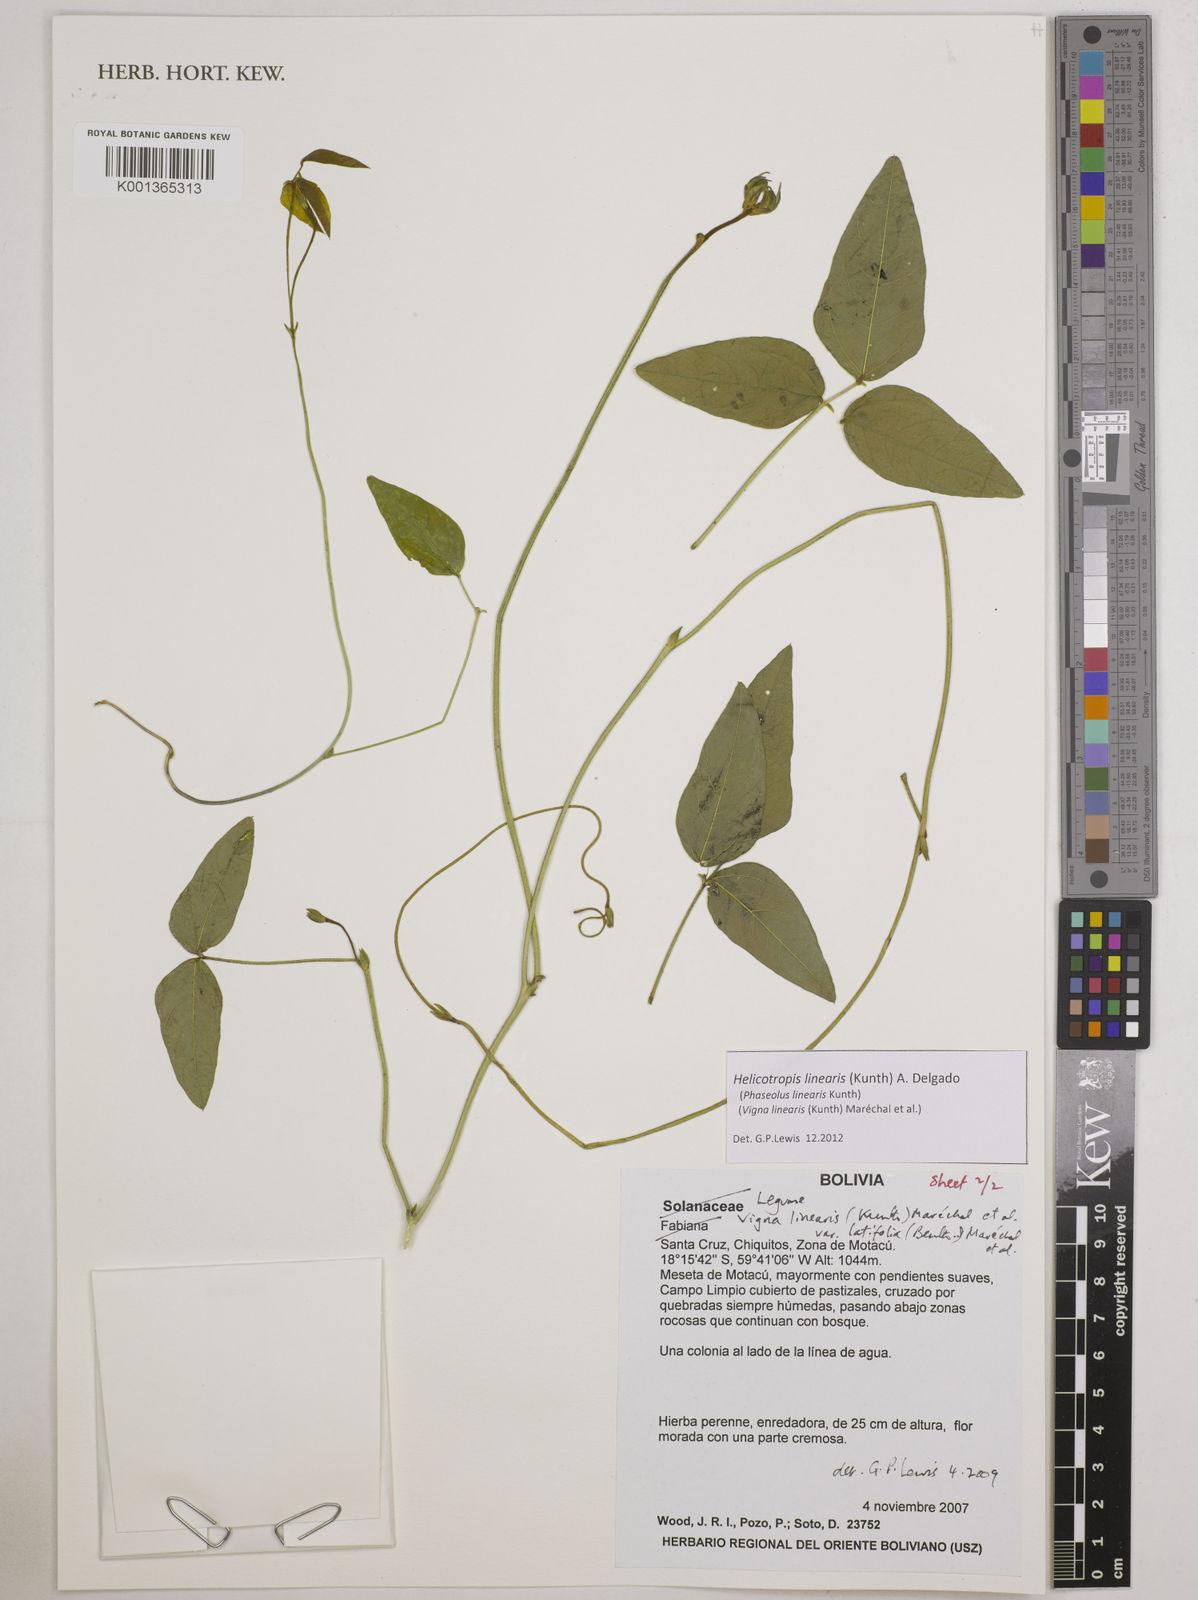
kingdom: Plantae
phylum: Tracheophyta
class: Magnoliopsida
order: Fabales
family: Fabaceae
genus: Helicotropis
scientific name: Helicotropis linearis
